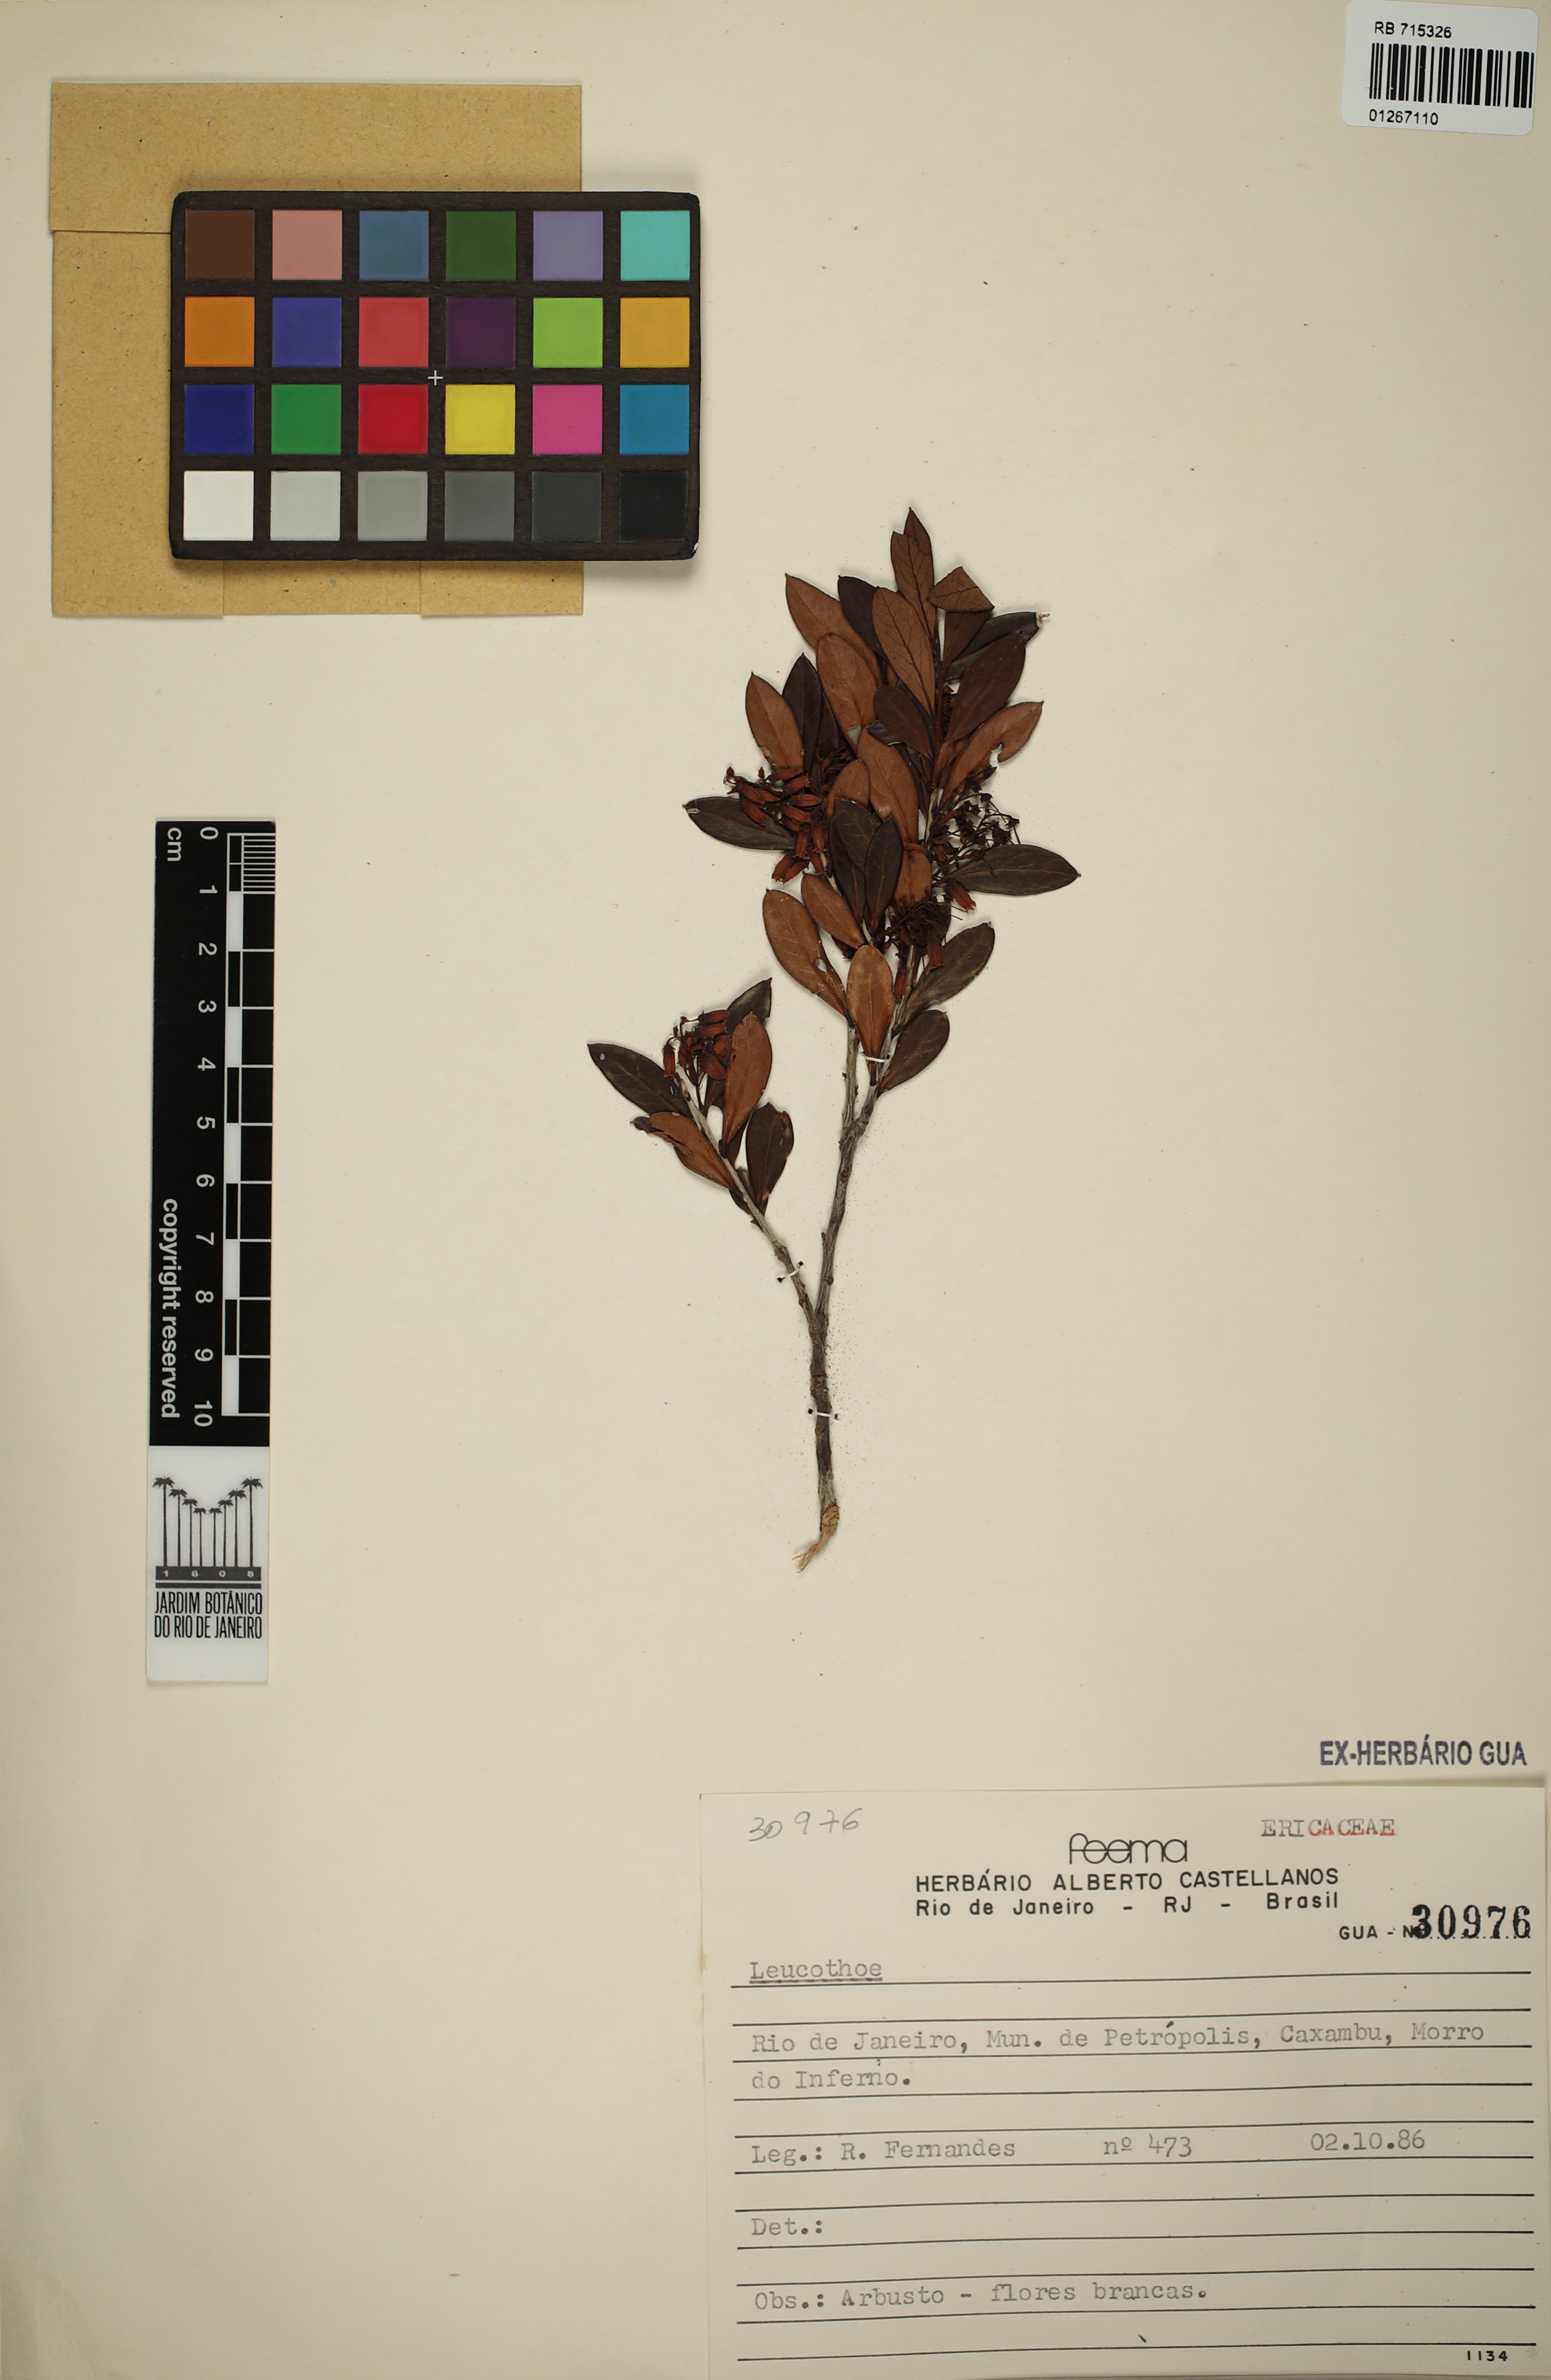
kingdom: Plantae
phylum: Tracheophyta
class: Magnoliopsida
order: Ericales
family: Ericaceae
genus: Leucothoe
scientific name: Leucothoe
